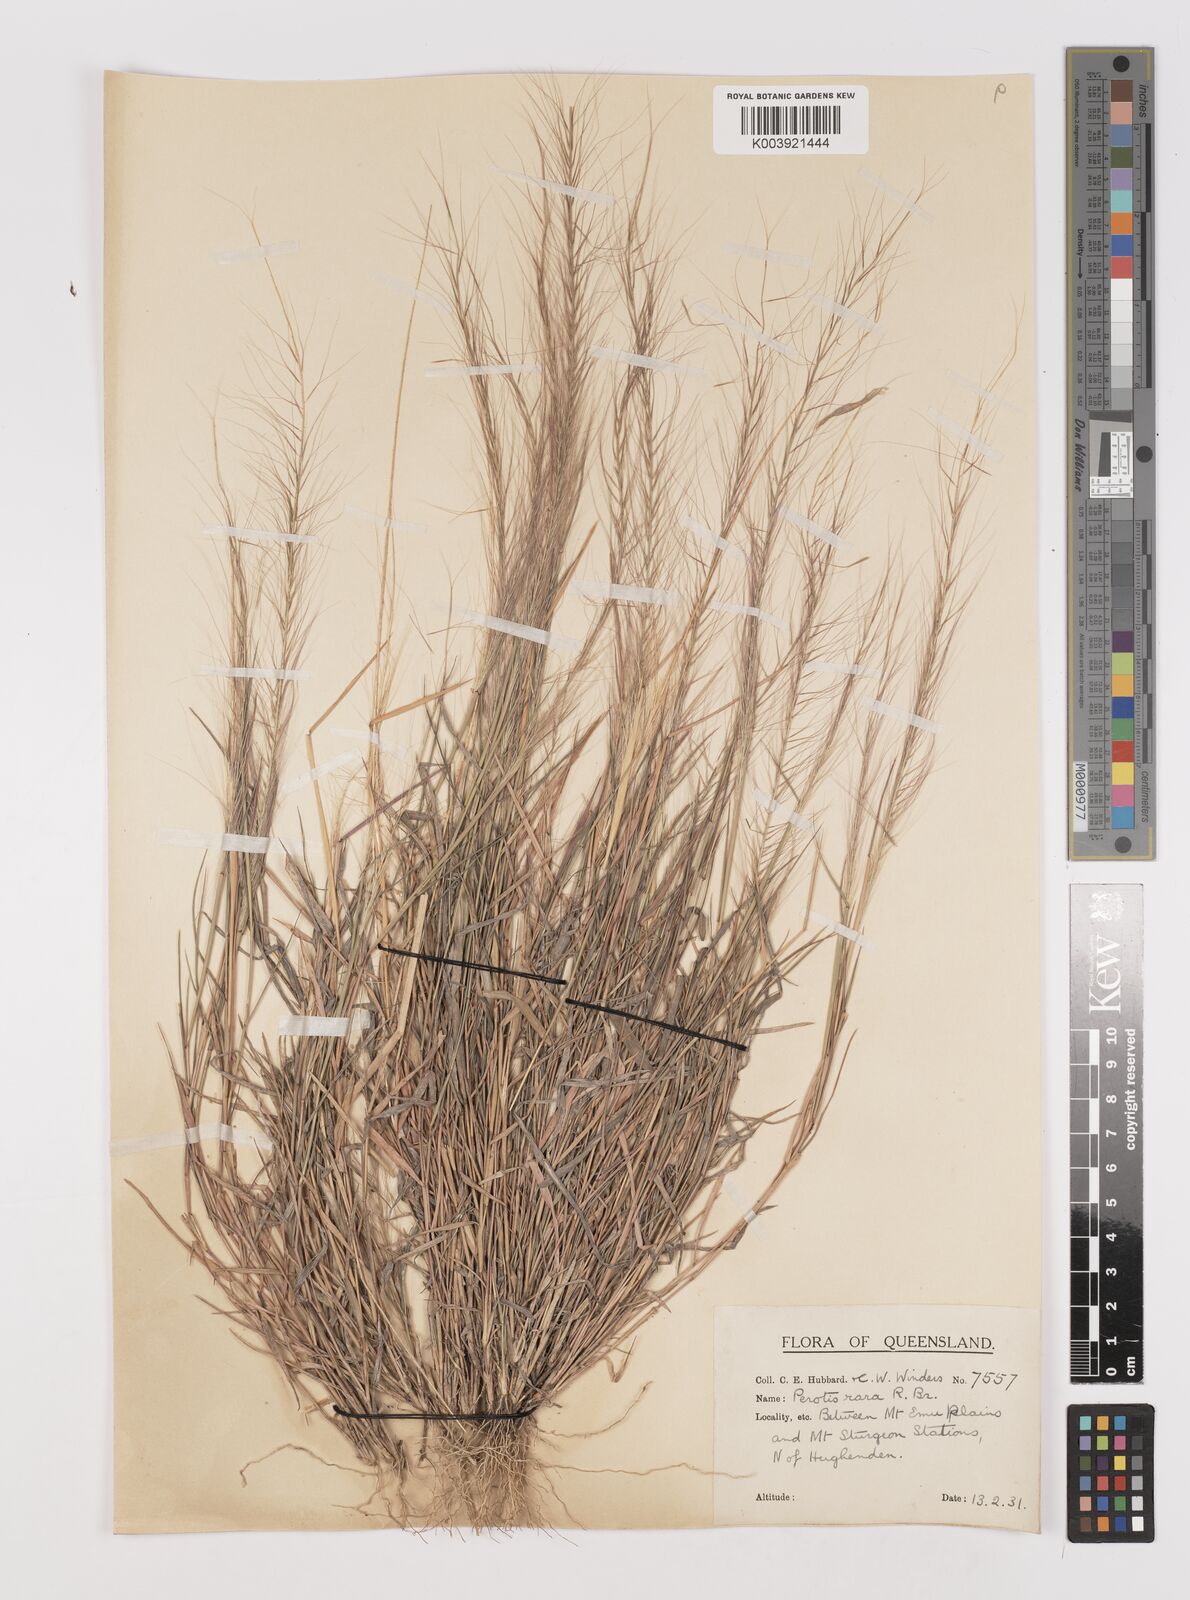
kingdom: Plantae
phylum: Tracheophyta
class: Liliopsida
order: Poales
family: Poaceae
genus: Perotis
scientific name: Perotis rara
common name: Comet grass
